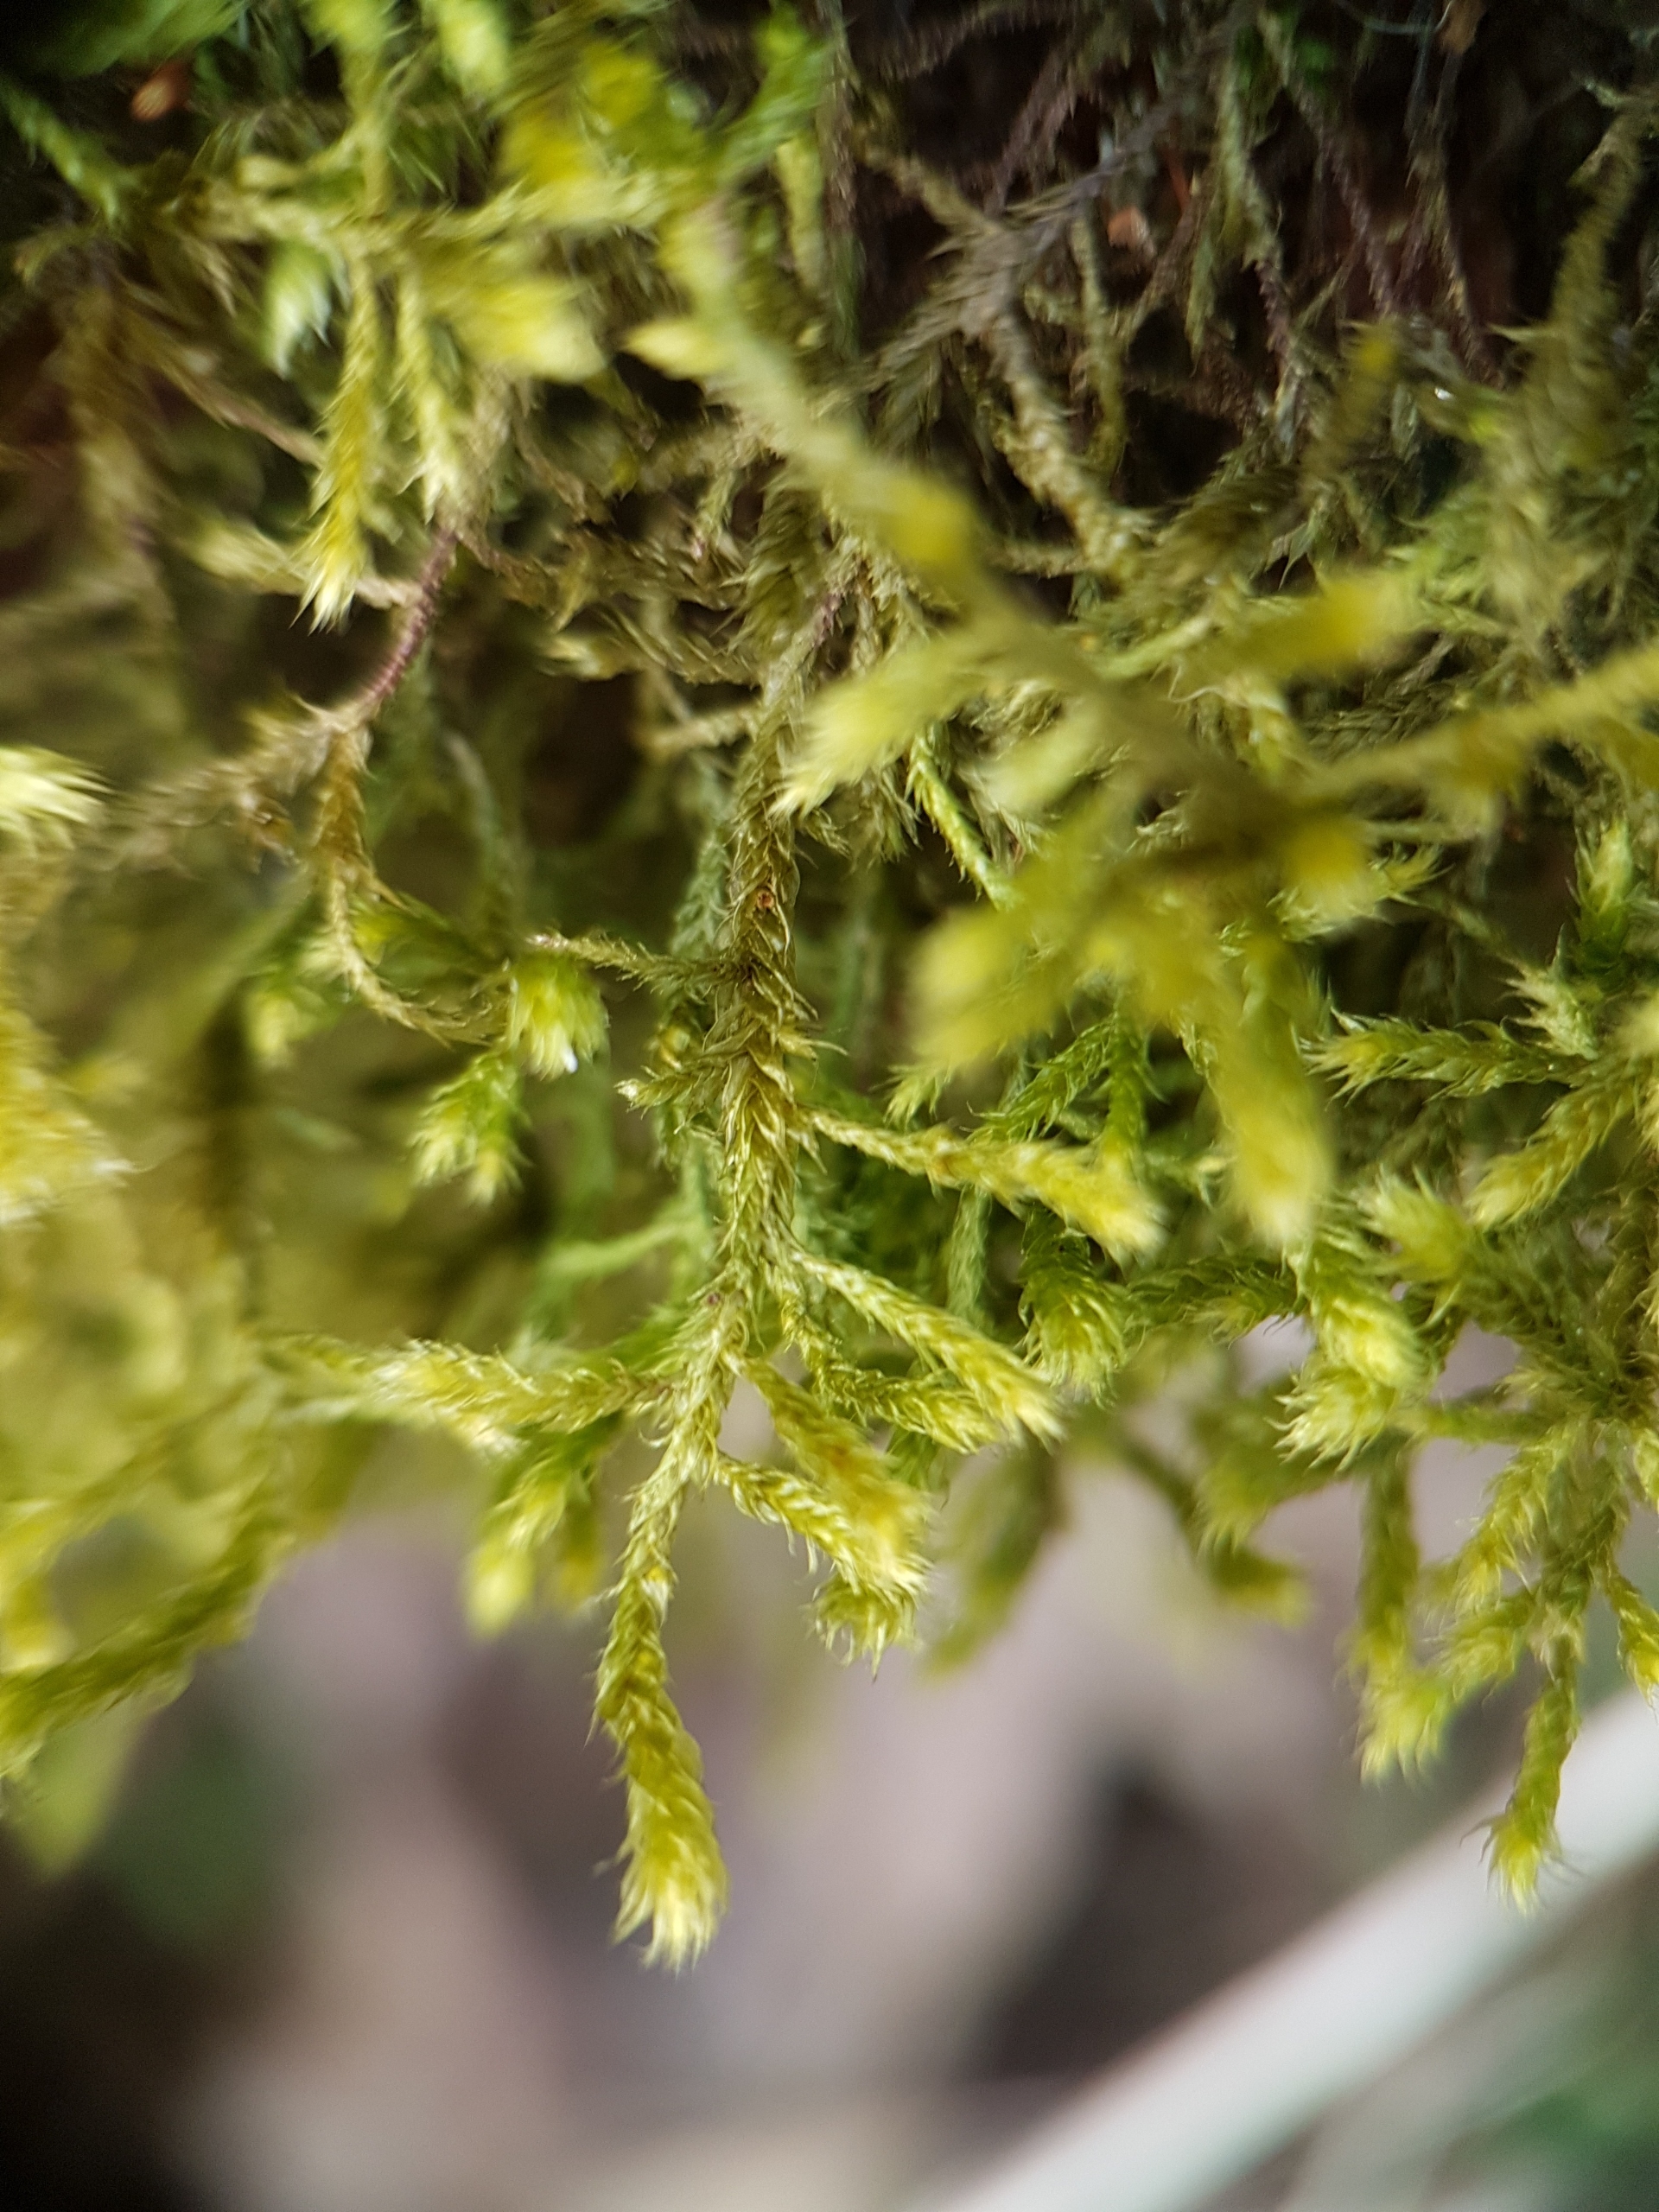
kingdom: Plantae
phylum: Bryophyta
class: Bryopsida
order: Hypnales
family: Antitrichiaceae
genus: Antitrichia
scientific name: Antitrichia curtipendula
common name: Åben krogtand
